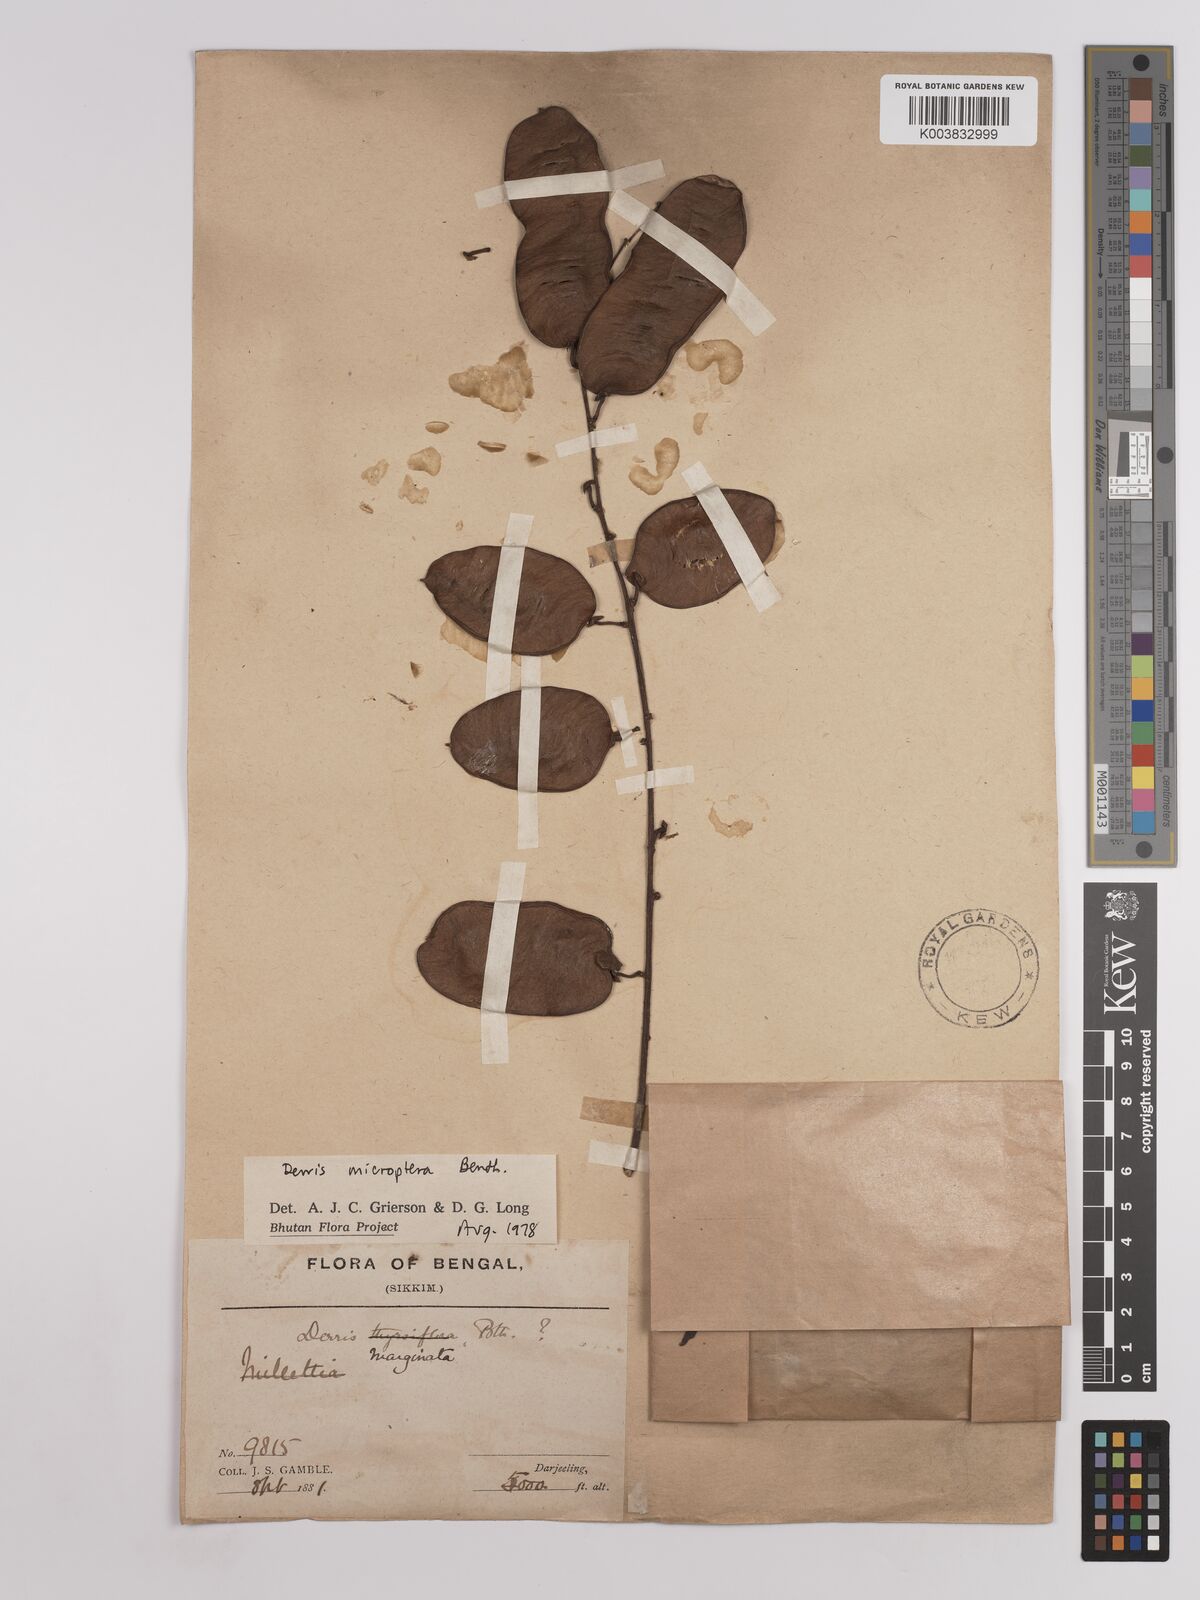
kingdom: Plantae
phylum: Tracheophyta
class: Magnoliopsida
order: Fabales
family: Fabaceae
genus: Derris
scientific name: Derris monticola
